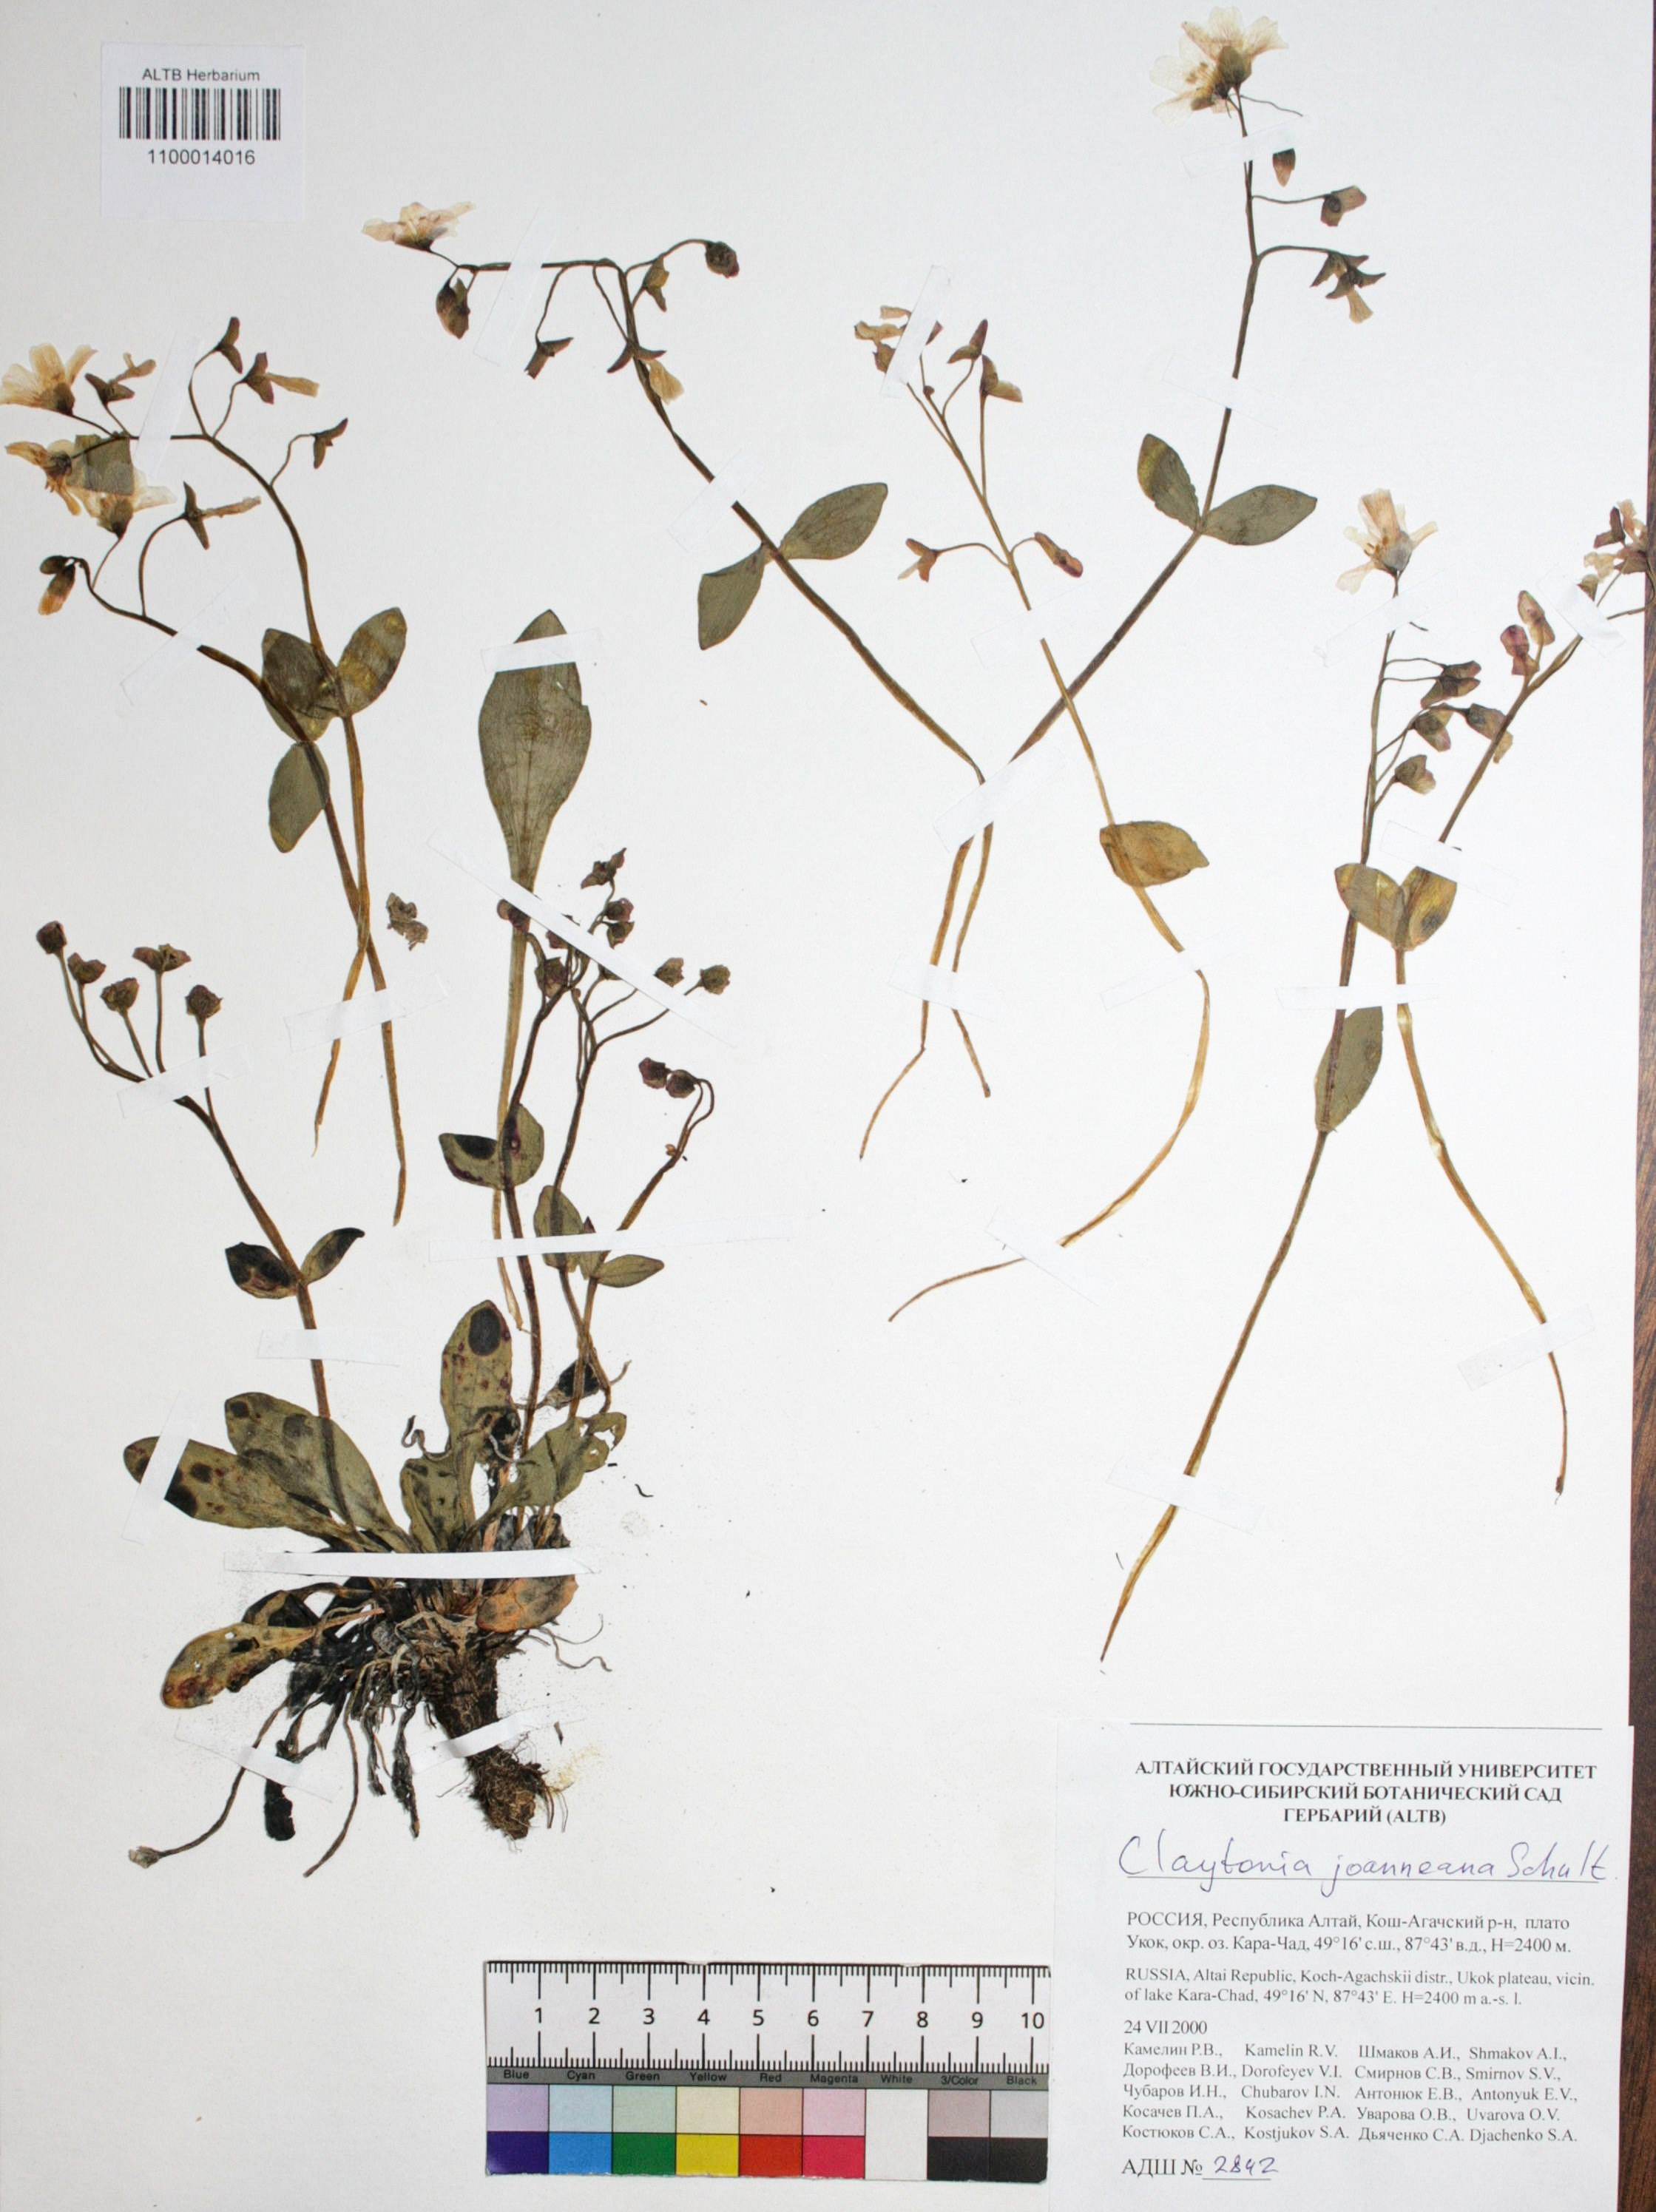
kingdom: Plantae
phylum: Tracheophyta
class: Magnoliopsida
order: Caryophyllales
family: Montiaceae
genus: Claytonia
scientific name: Claytonia joanneana
